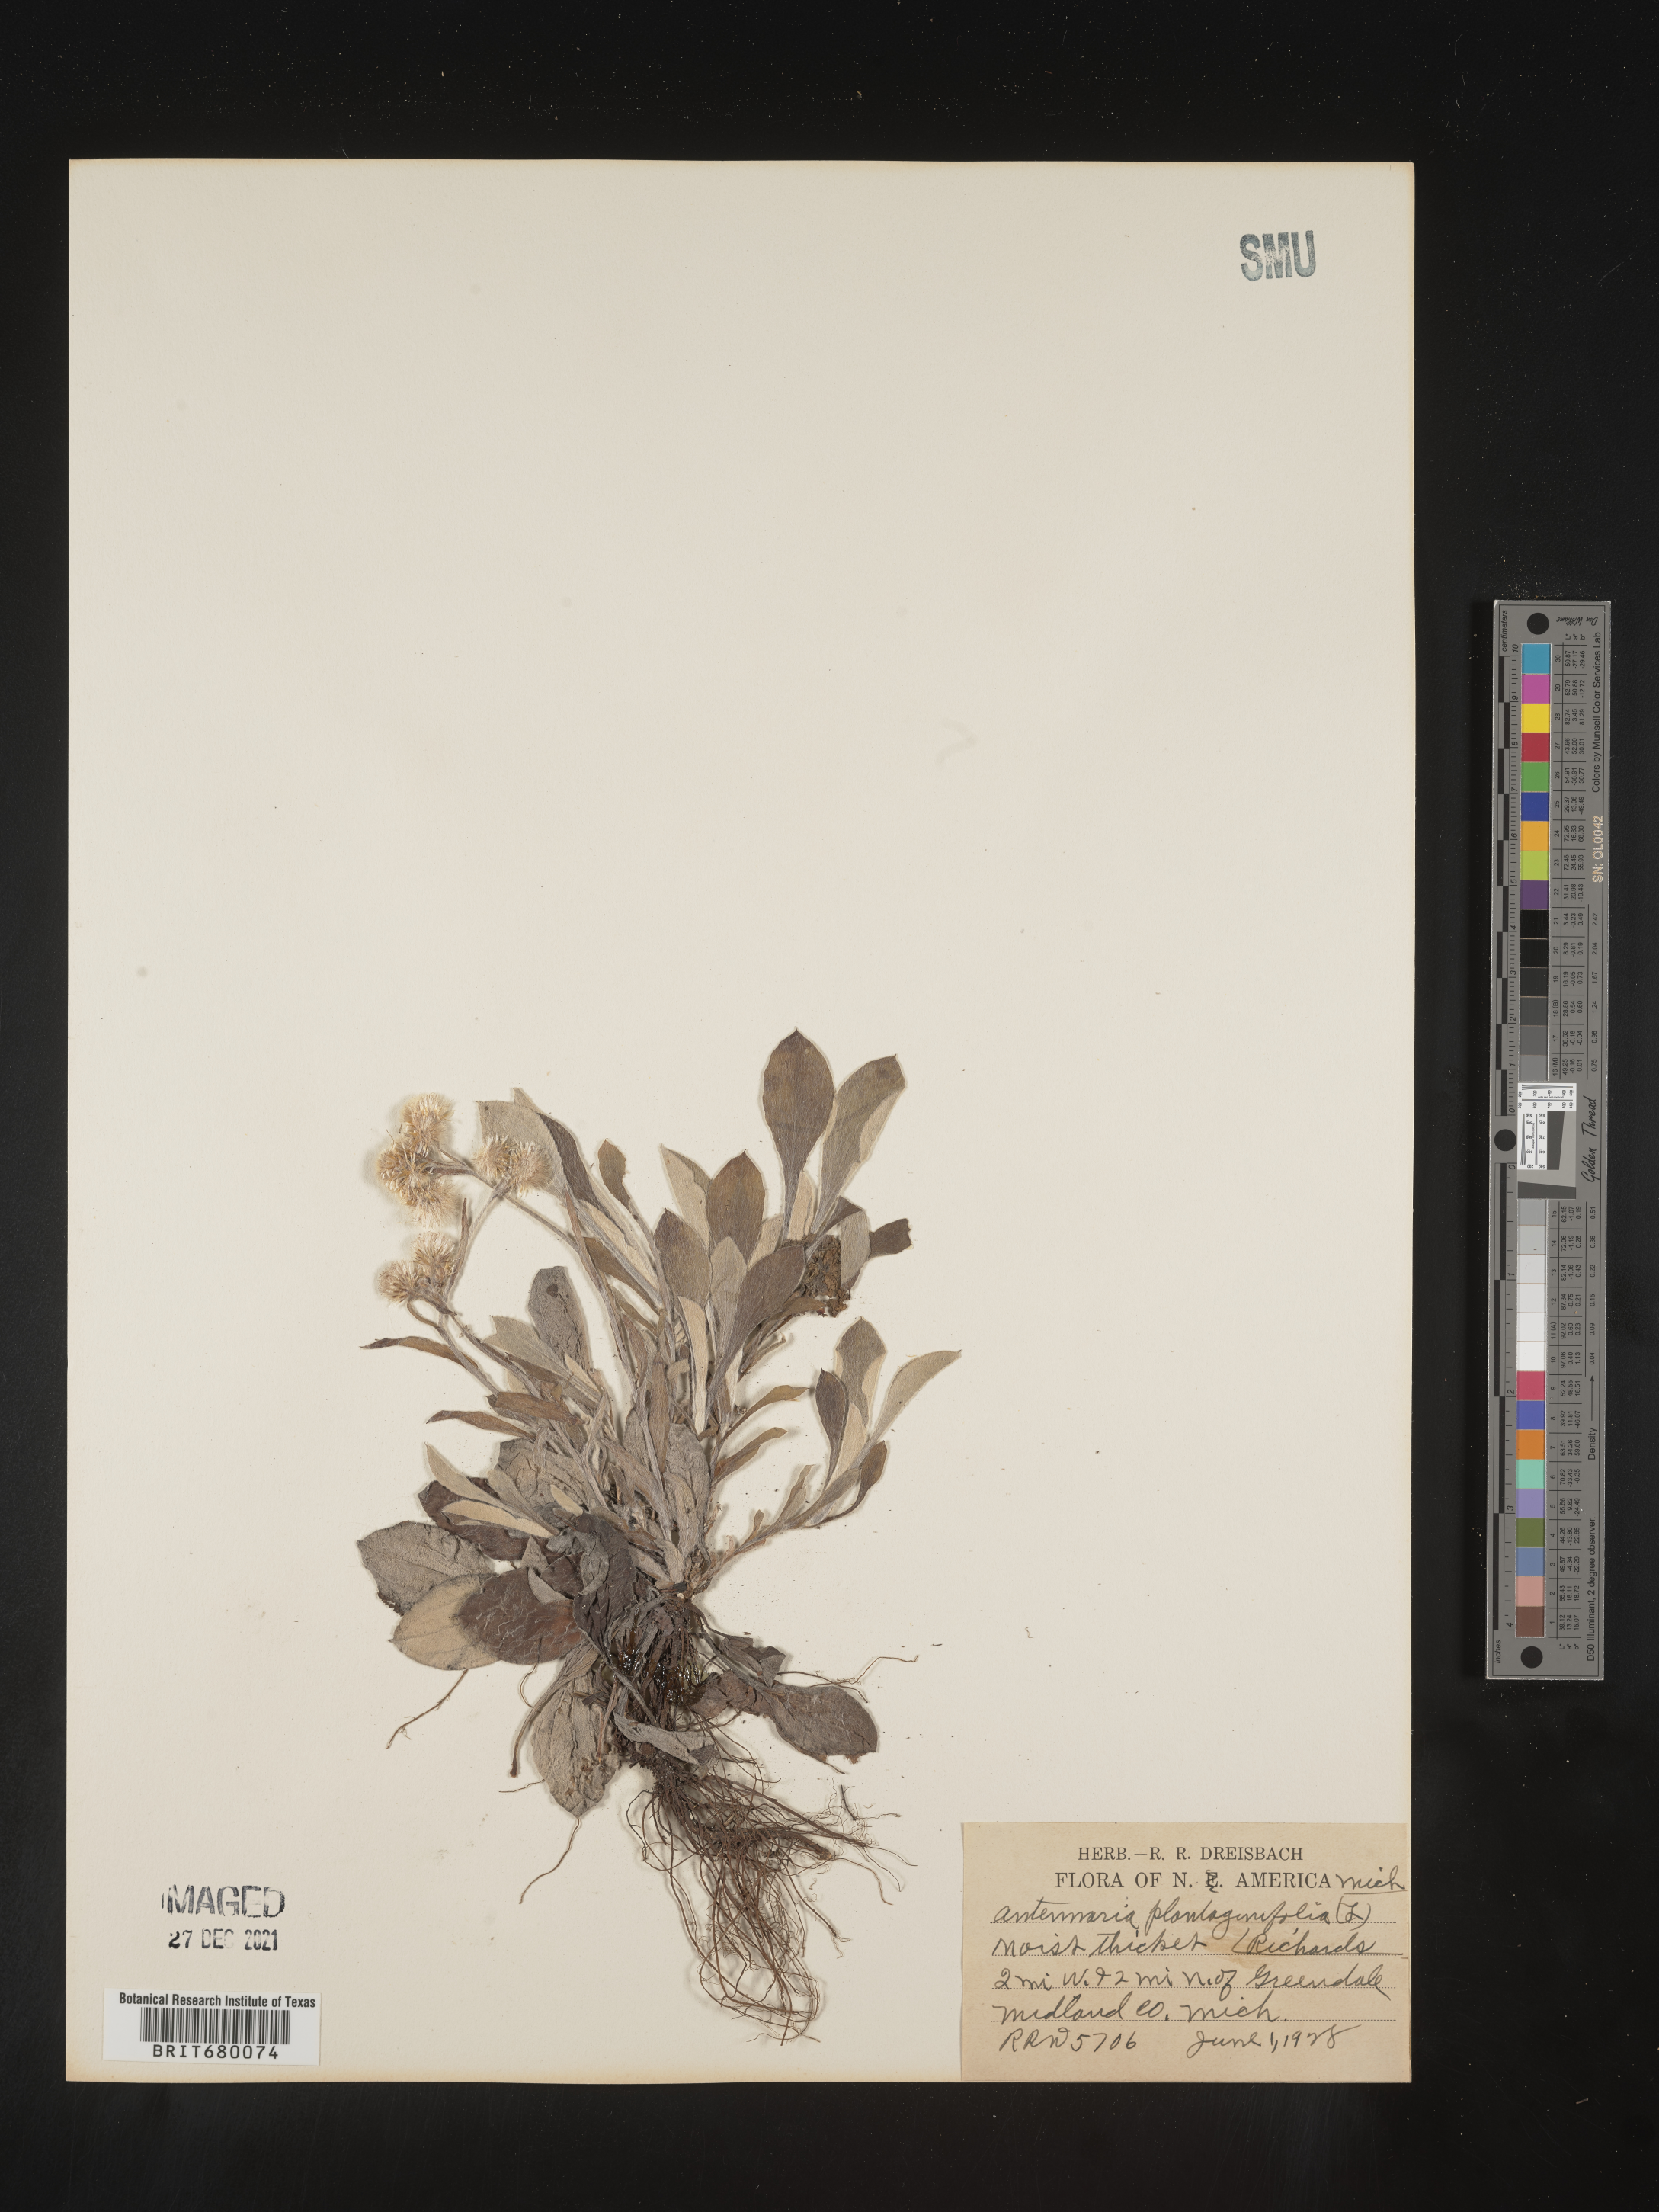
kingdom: Plantae
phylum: Tracheophyta
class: Magnoliopsida
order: Asterales
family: Asteraceae
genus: Antennaria
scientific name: Antennaria plantaginifolia
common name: Plantain-leaved pussytoes
